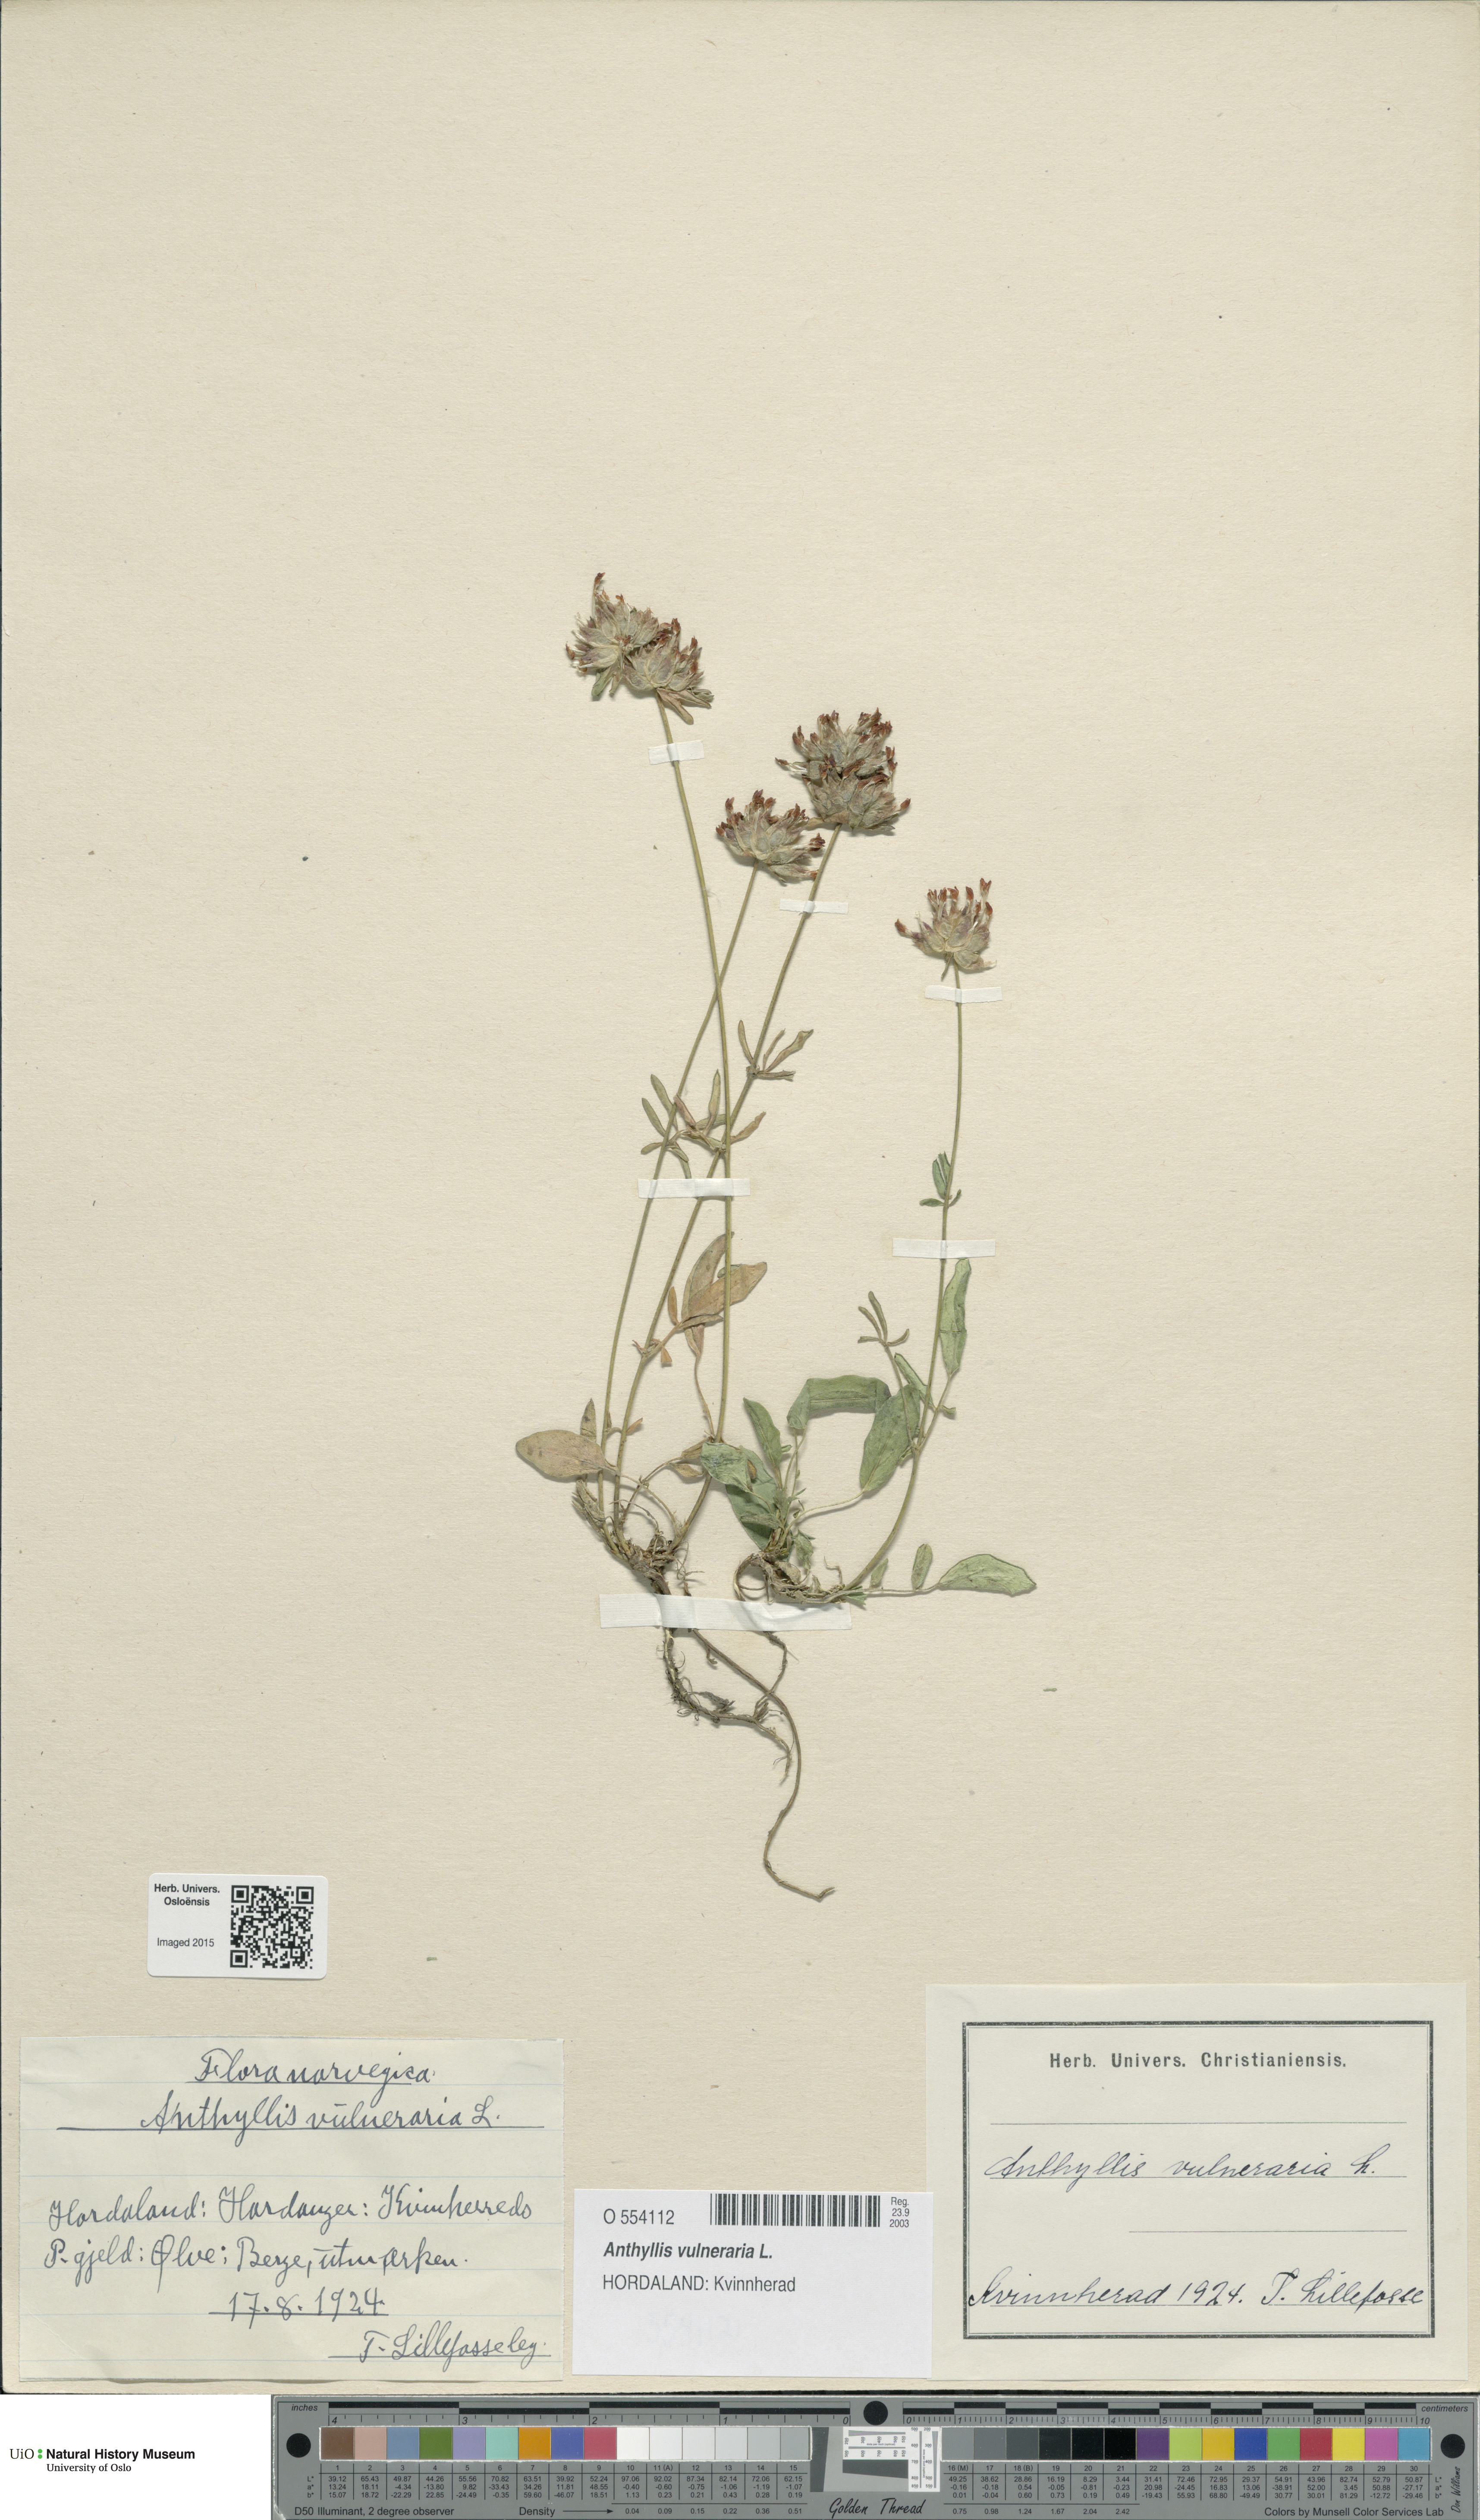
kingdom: Plantae
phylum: Tracheophyta
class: Magnoliopsida
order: Fabales
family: Fabaceae
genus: Anthyllis
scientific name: Anthyllis vulneraria
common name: Kidney vetch
